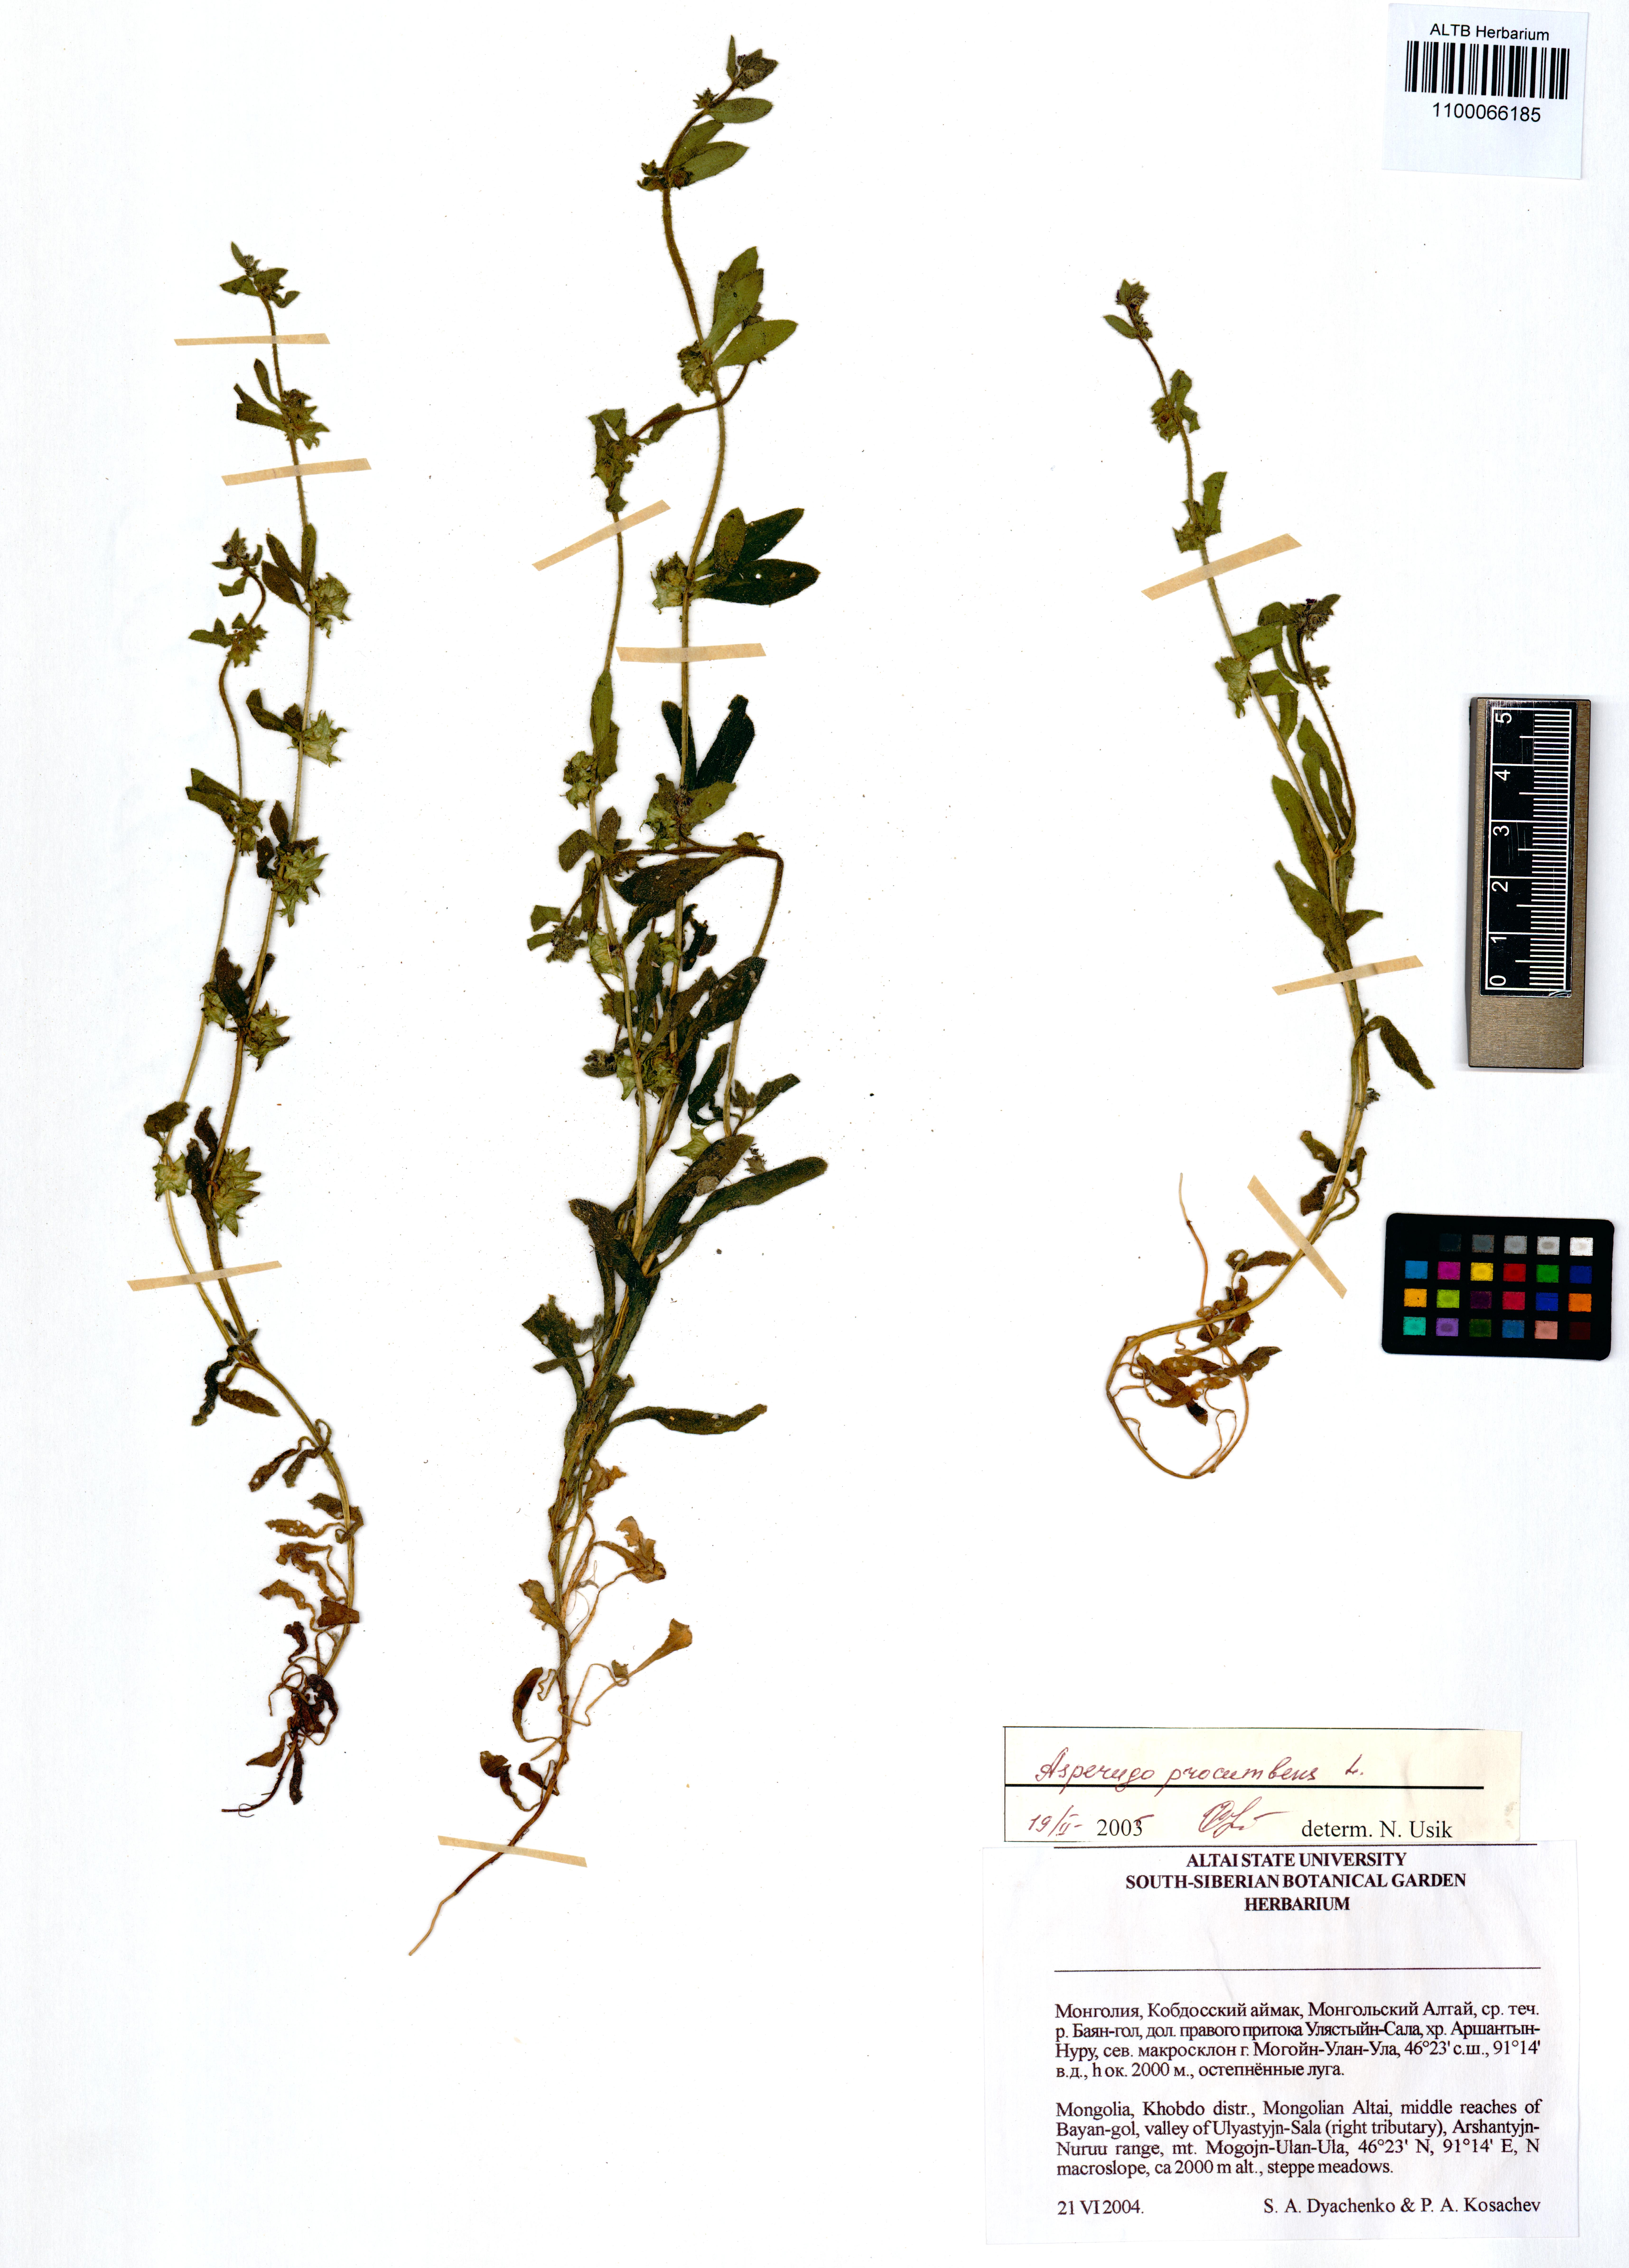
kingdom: Plantae
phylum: Tracheophyta
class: Magnoliopsida
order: Boraginales
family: Boraginaceae
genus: Asperugo
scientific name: Asperugo procumbens
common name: Madwort
